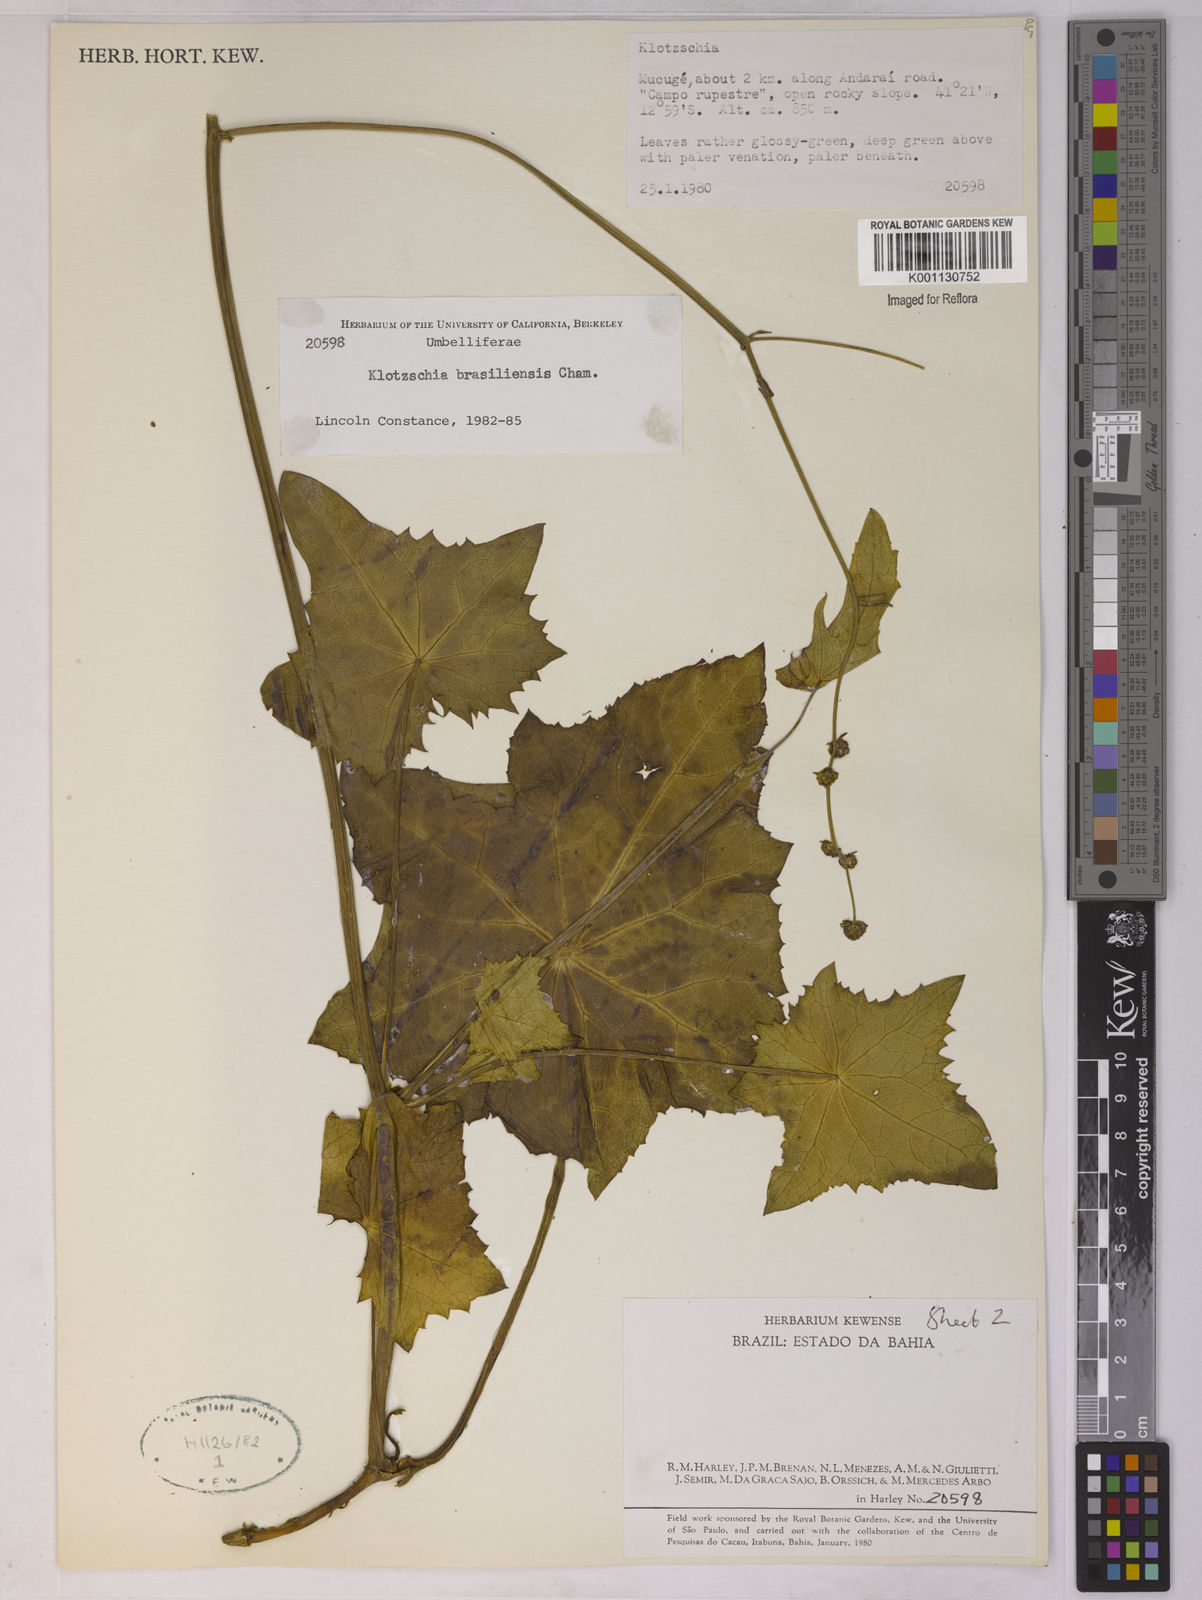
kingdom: Plantae
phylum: Tracheophyta
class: Magnoliopsida
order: Apiales
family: Apiaceae
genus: Klotzschia
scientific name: Klotzschia brasiliensis
